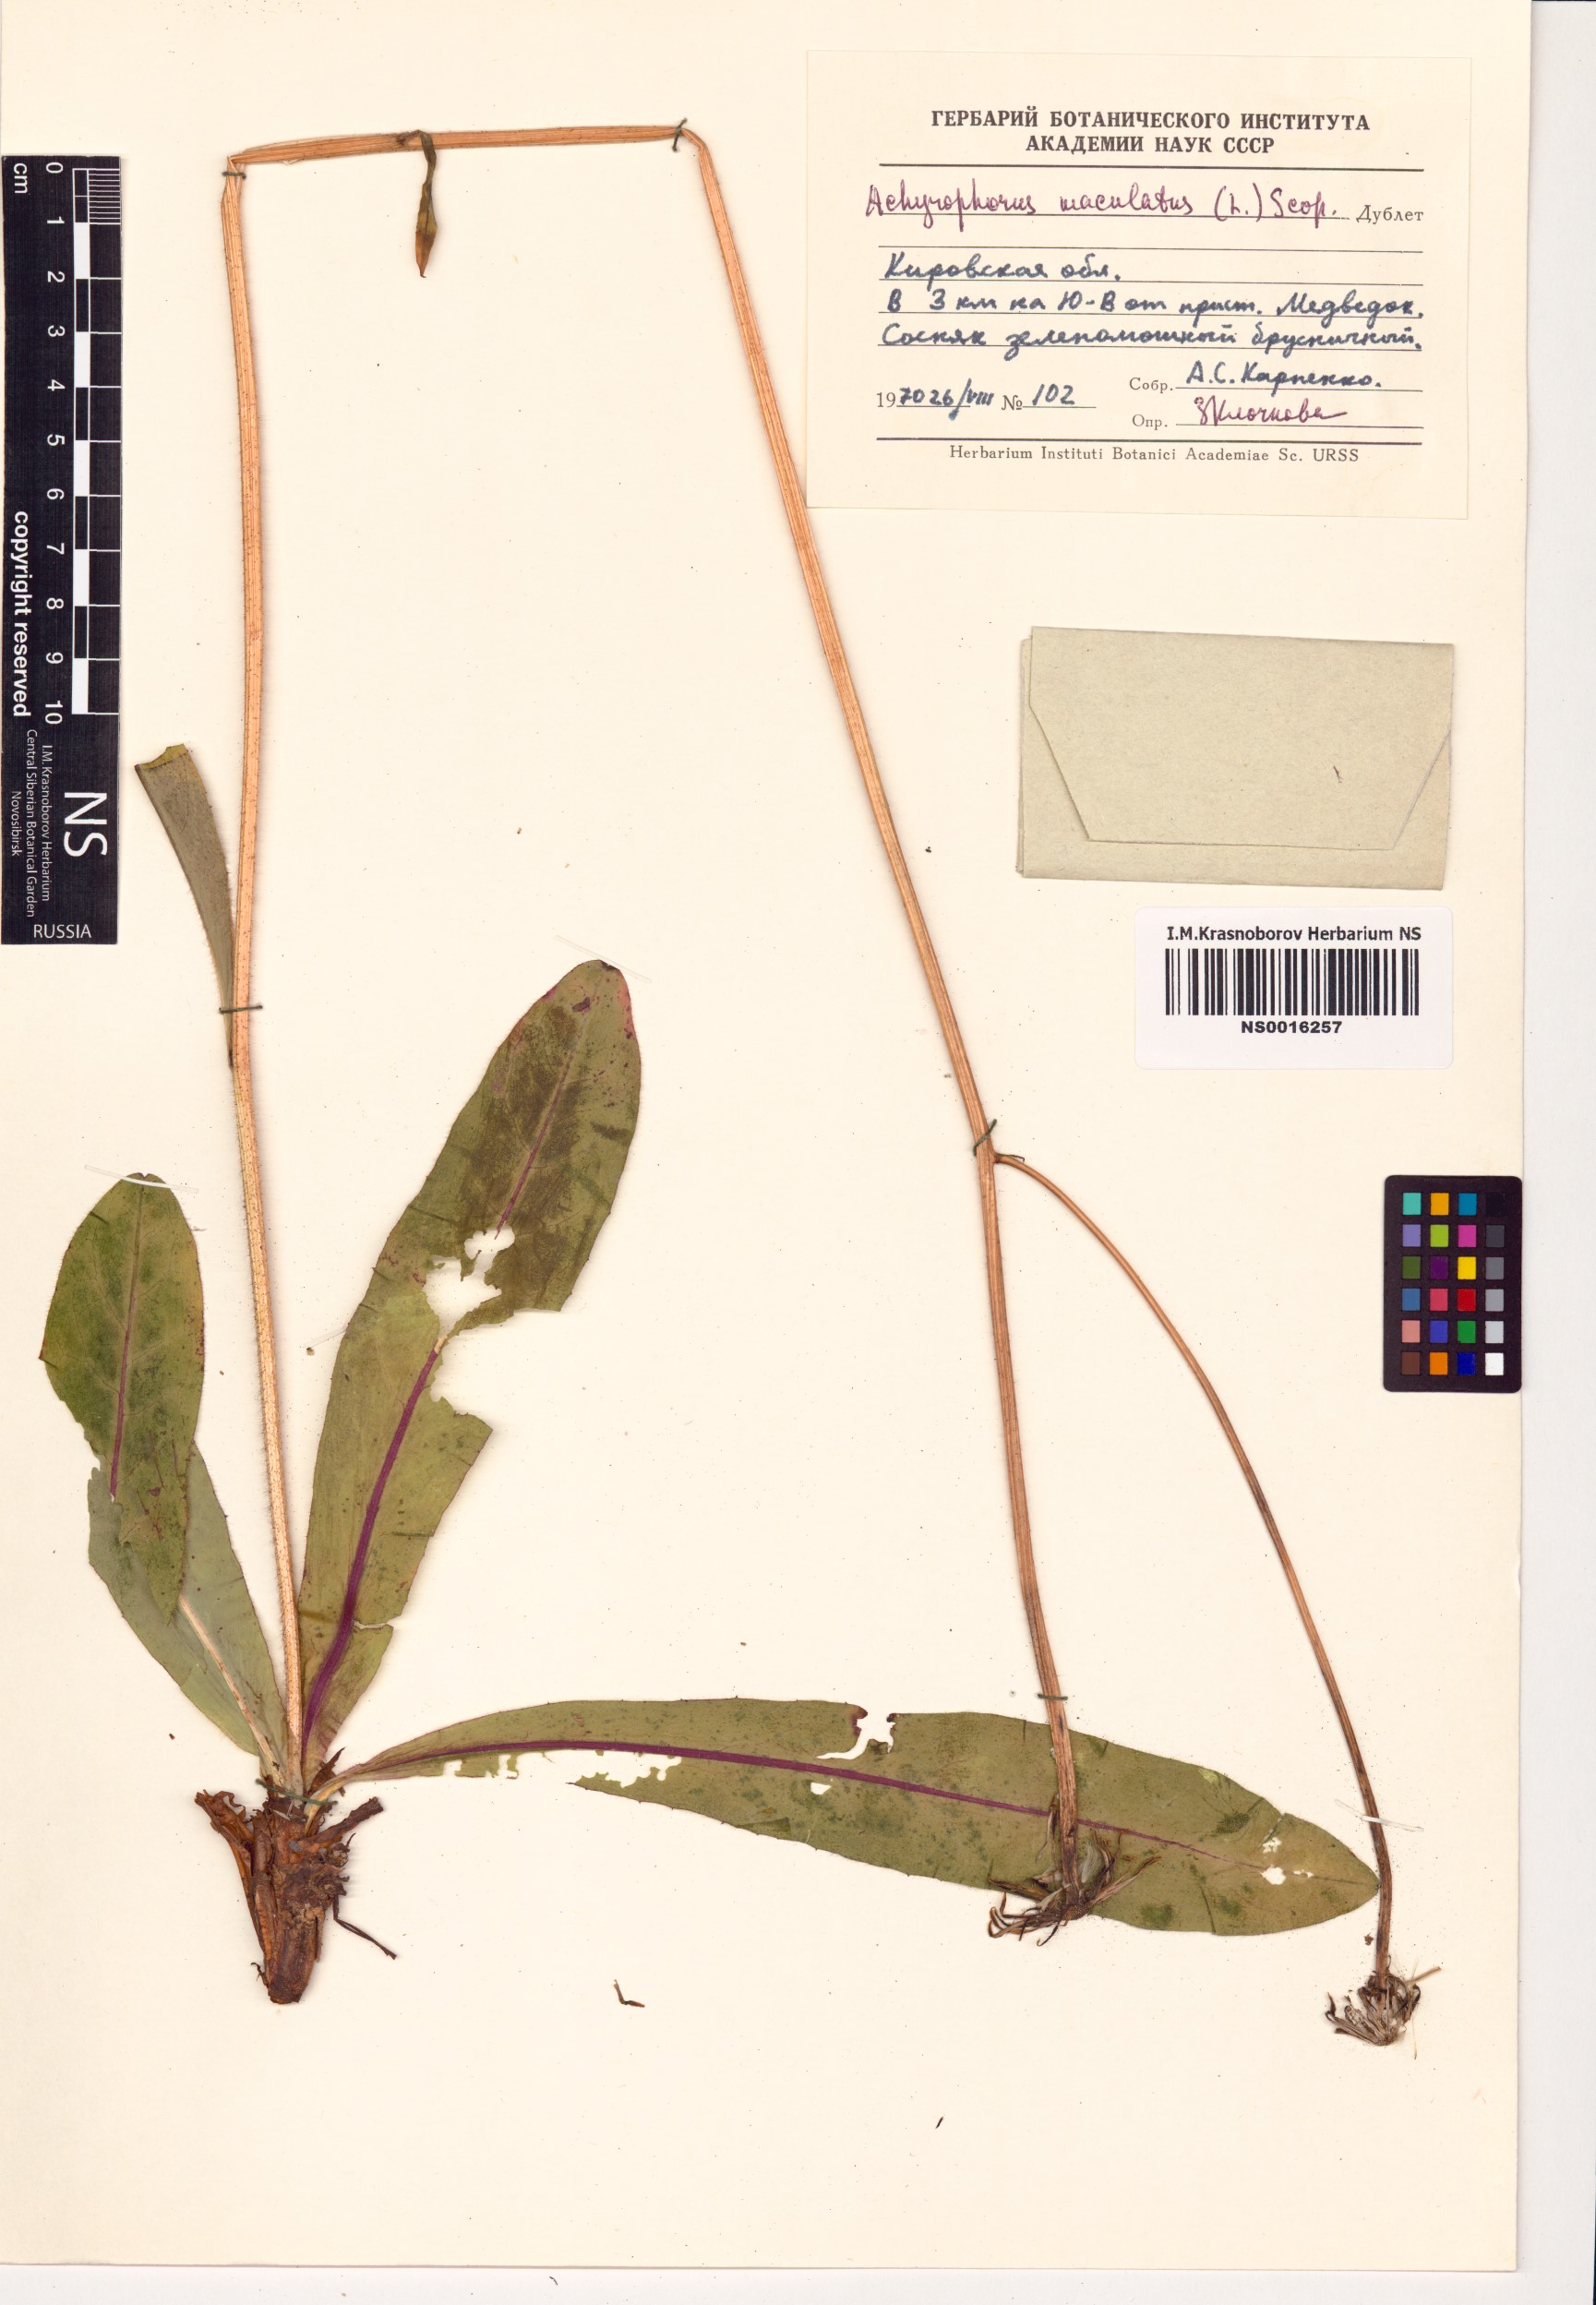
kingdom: Plantae
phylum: Tracheophyta
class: Magnoliopsida
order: Asterales
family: Asteraceae
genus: Trommsdorffia
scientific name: Trommsdorffia maculata
